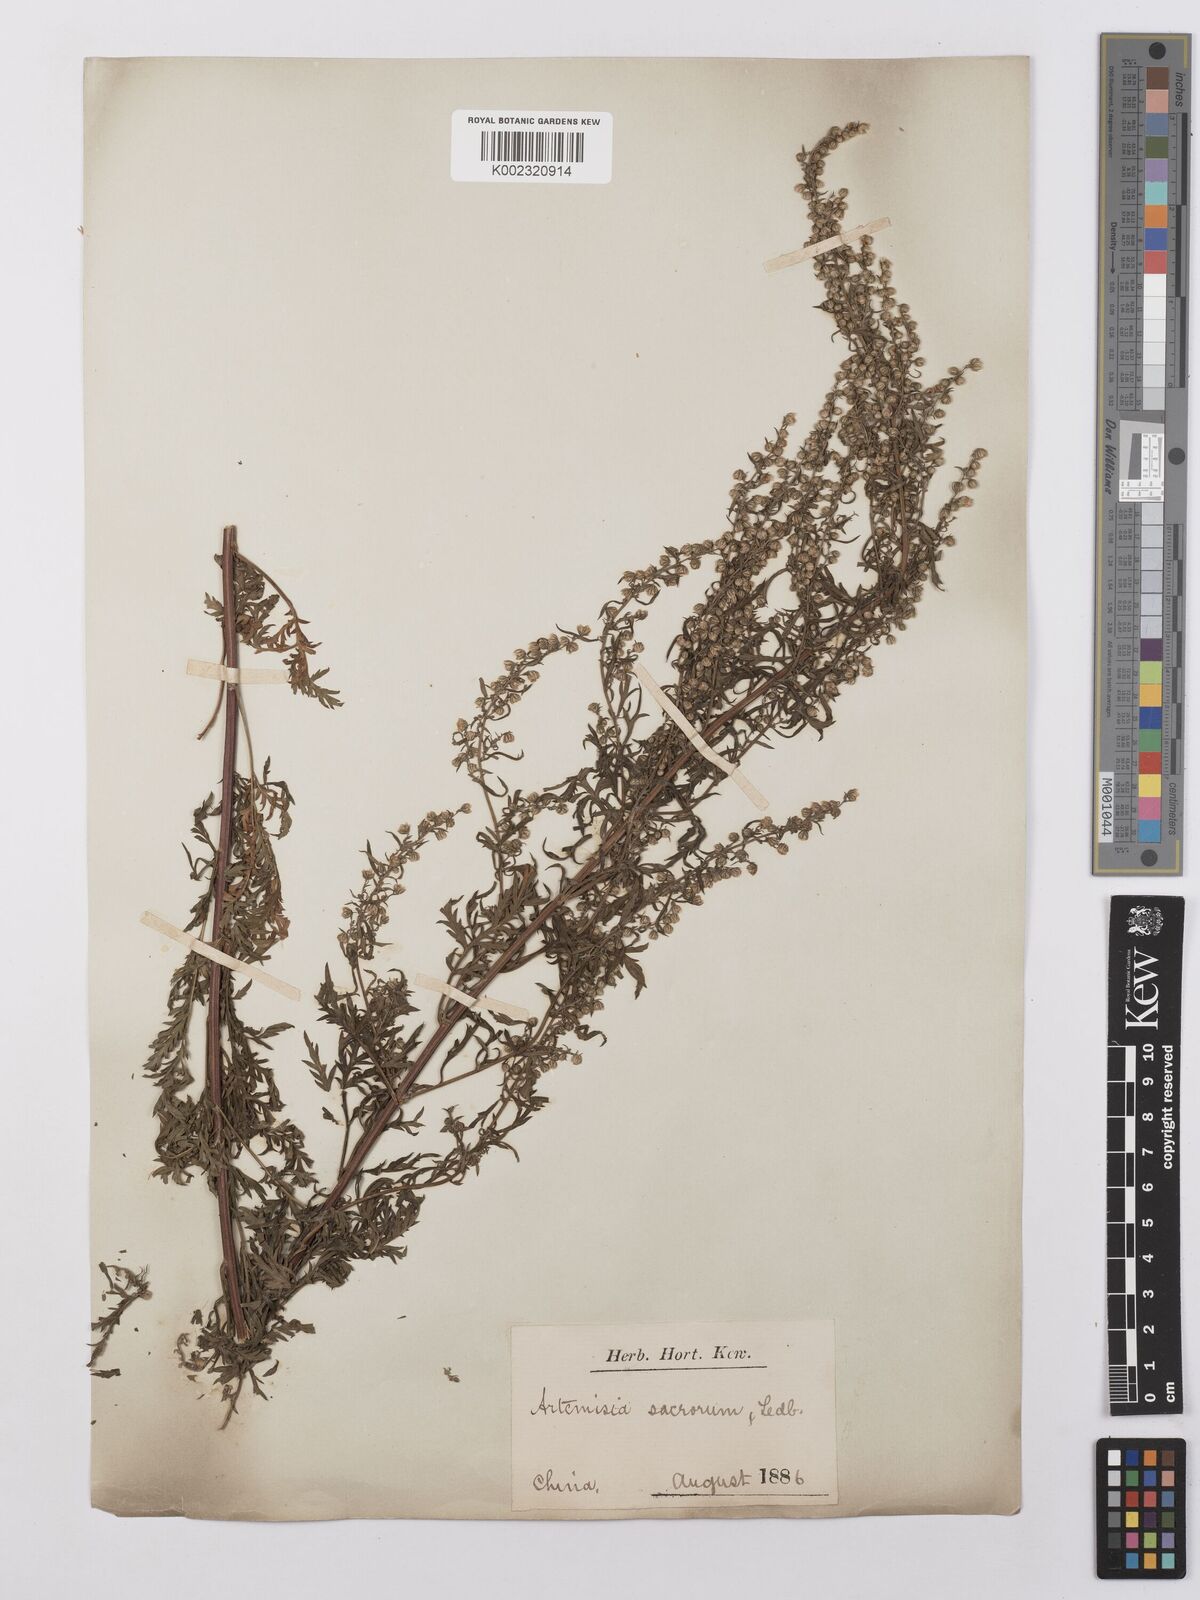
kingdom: Plantae
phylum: Tracheophyta
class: Magnoliopsida
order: Asterales
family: Asteraceae
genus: Artemisia
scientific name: Artemisia gmelinii
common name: Gmelin's wormwood
